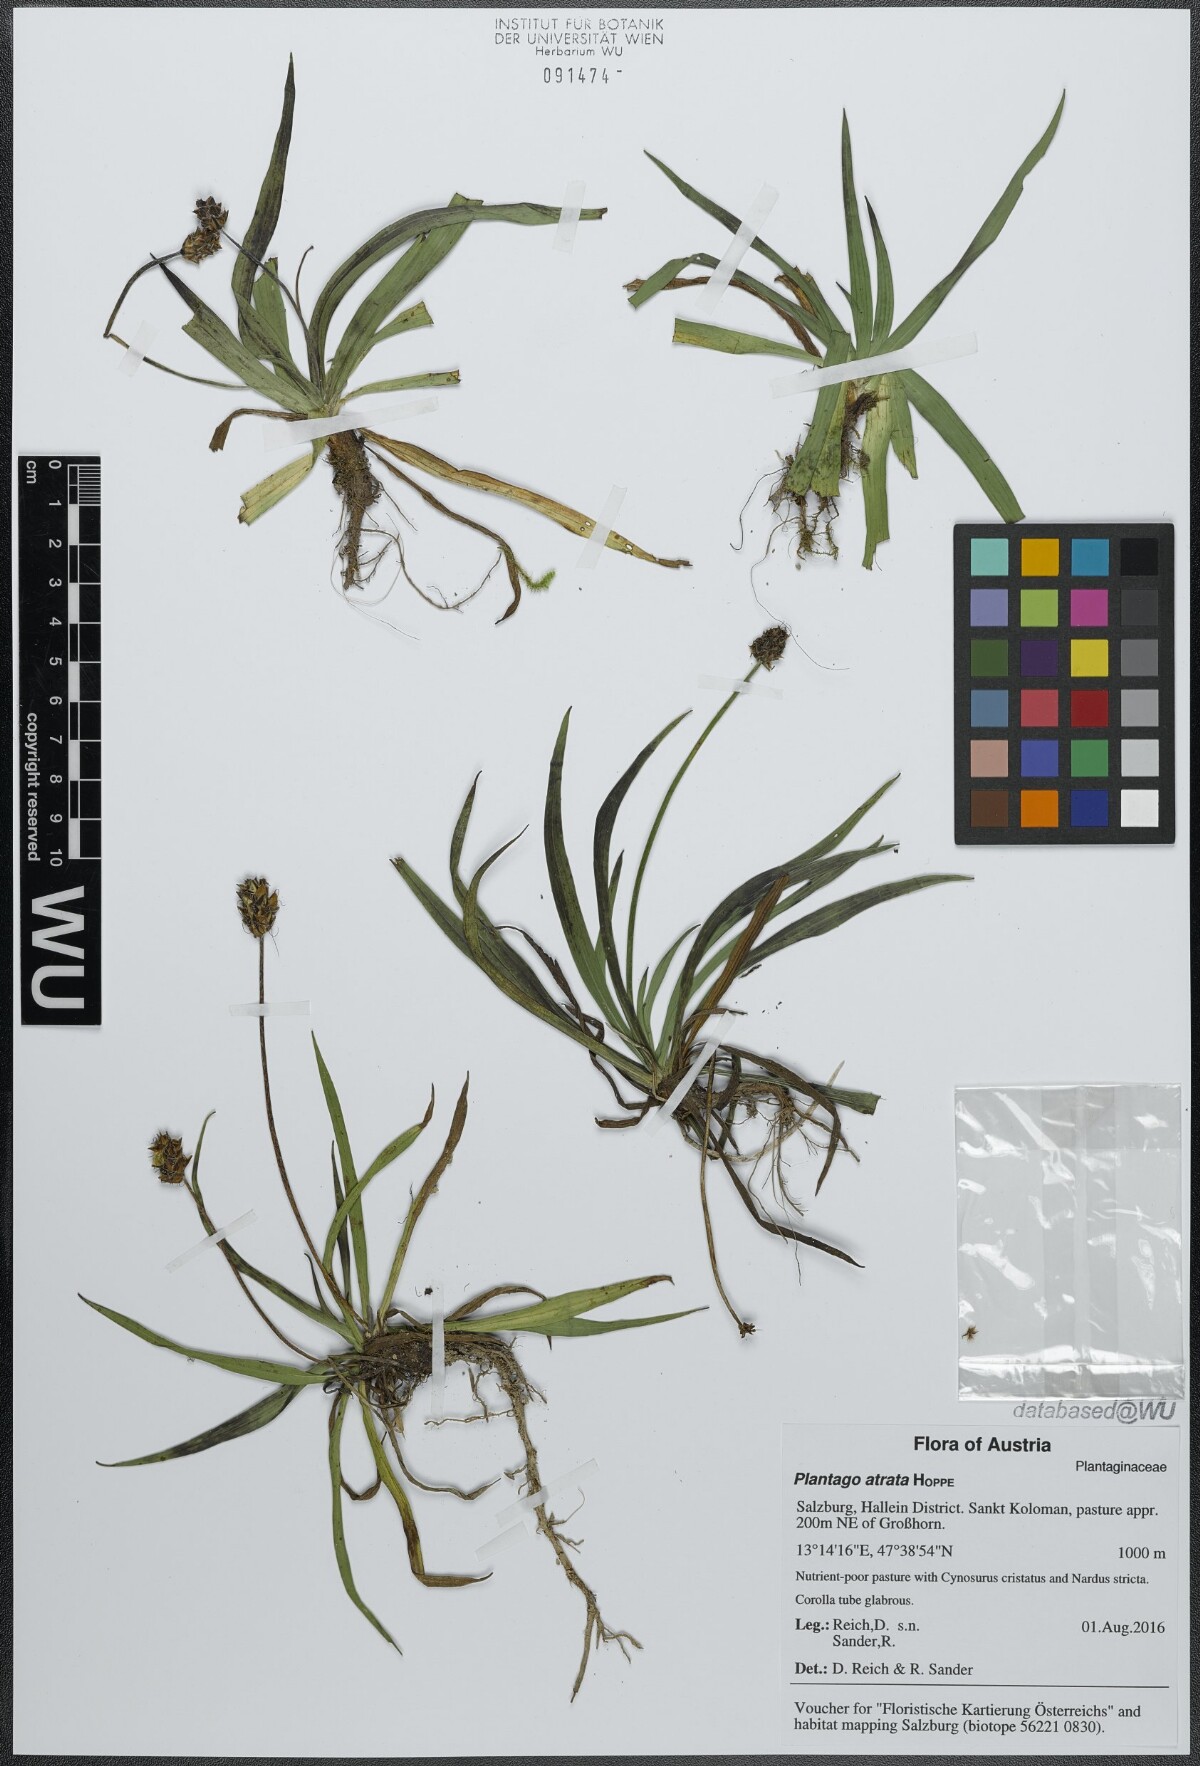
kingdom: Plantae
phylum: Tracheophyta
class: Magnoliopsida
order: Lamiales
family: Plantaginaceae
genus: Plantago
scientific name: Plantago atrata
